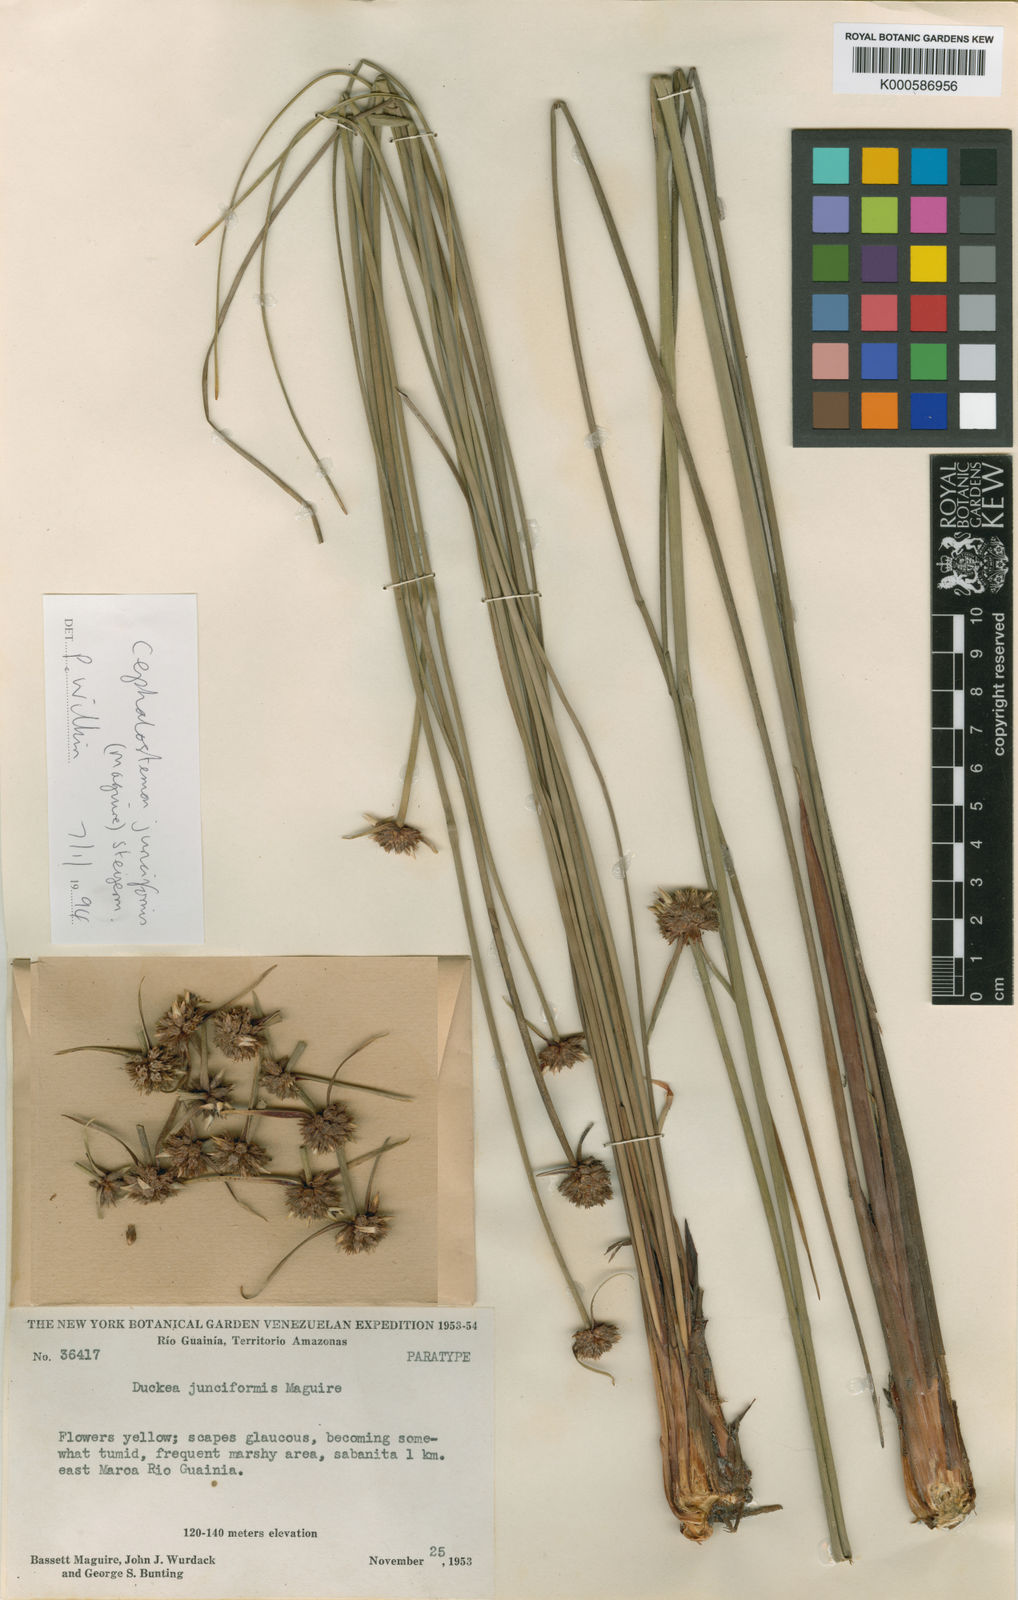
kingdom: Plantae
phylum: Tracheophyta
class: Liliopsida
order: Poales
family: Rapateaceae
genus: Duckea
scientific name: Duckea junciformis
